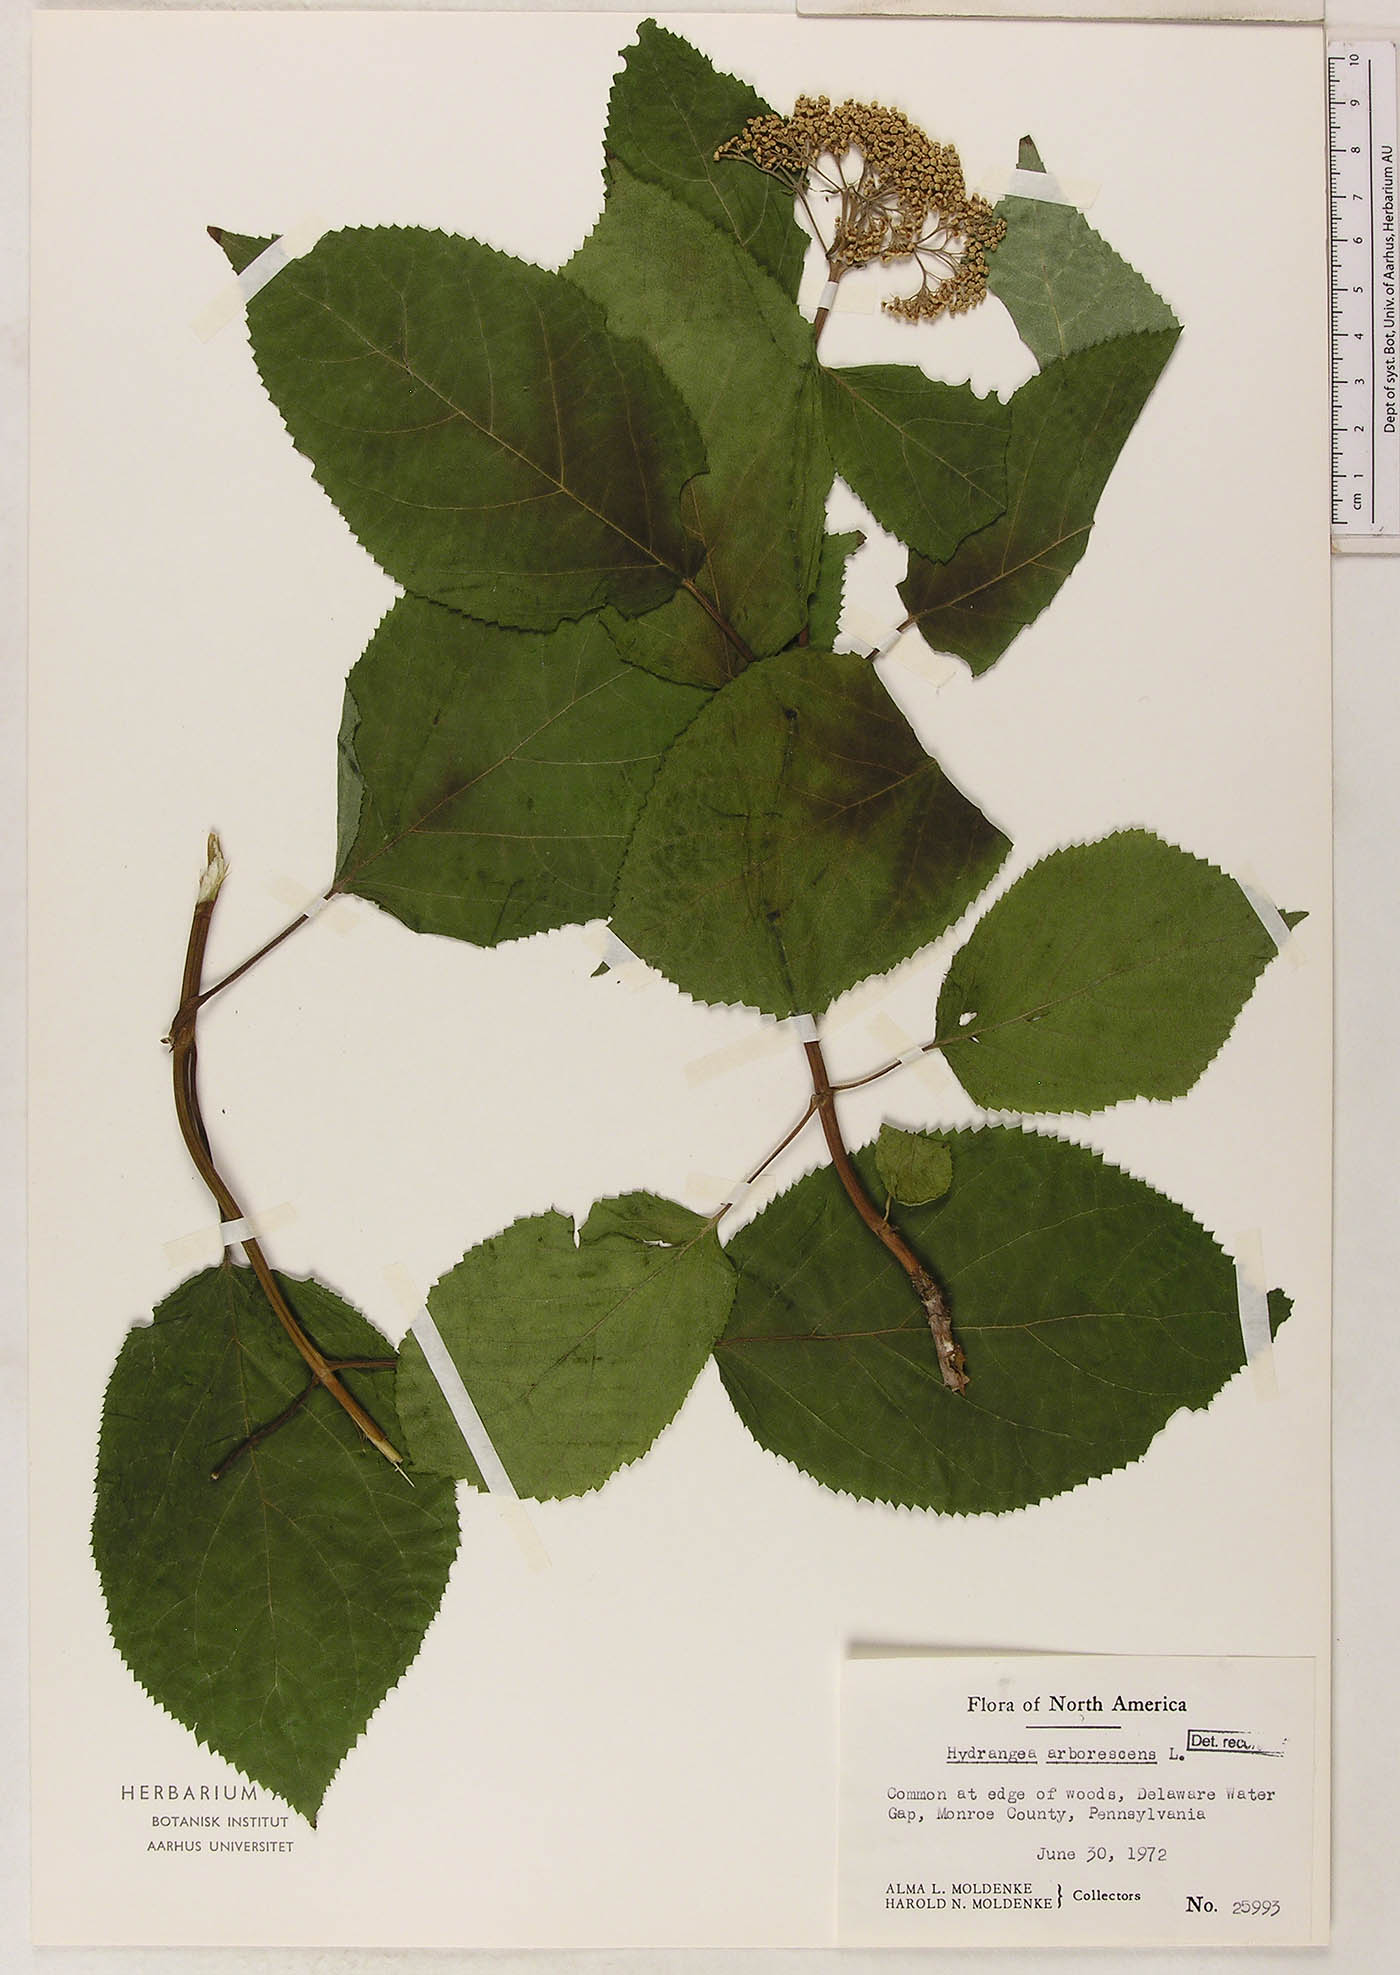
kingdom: Plantae
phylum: Tracheophyta
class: Magnoliopsida
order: Cornales
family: Hydrangeaceae
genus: Hydrangea
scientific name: Hydrangea arborescens
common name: Sevenbark
